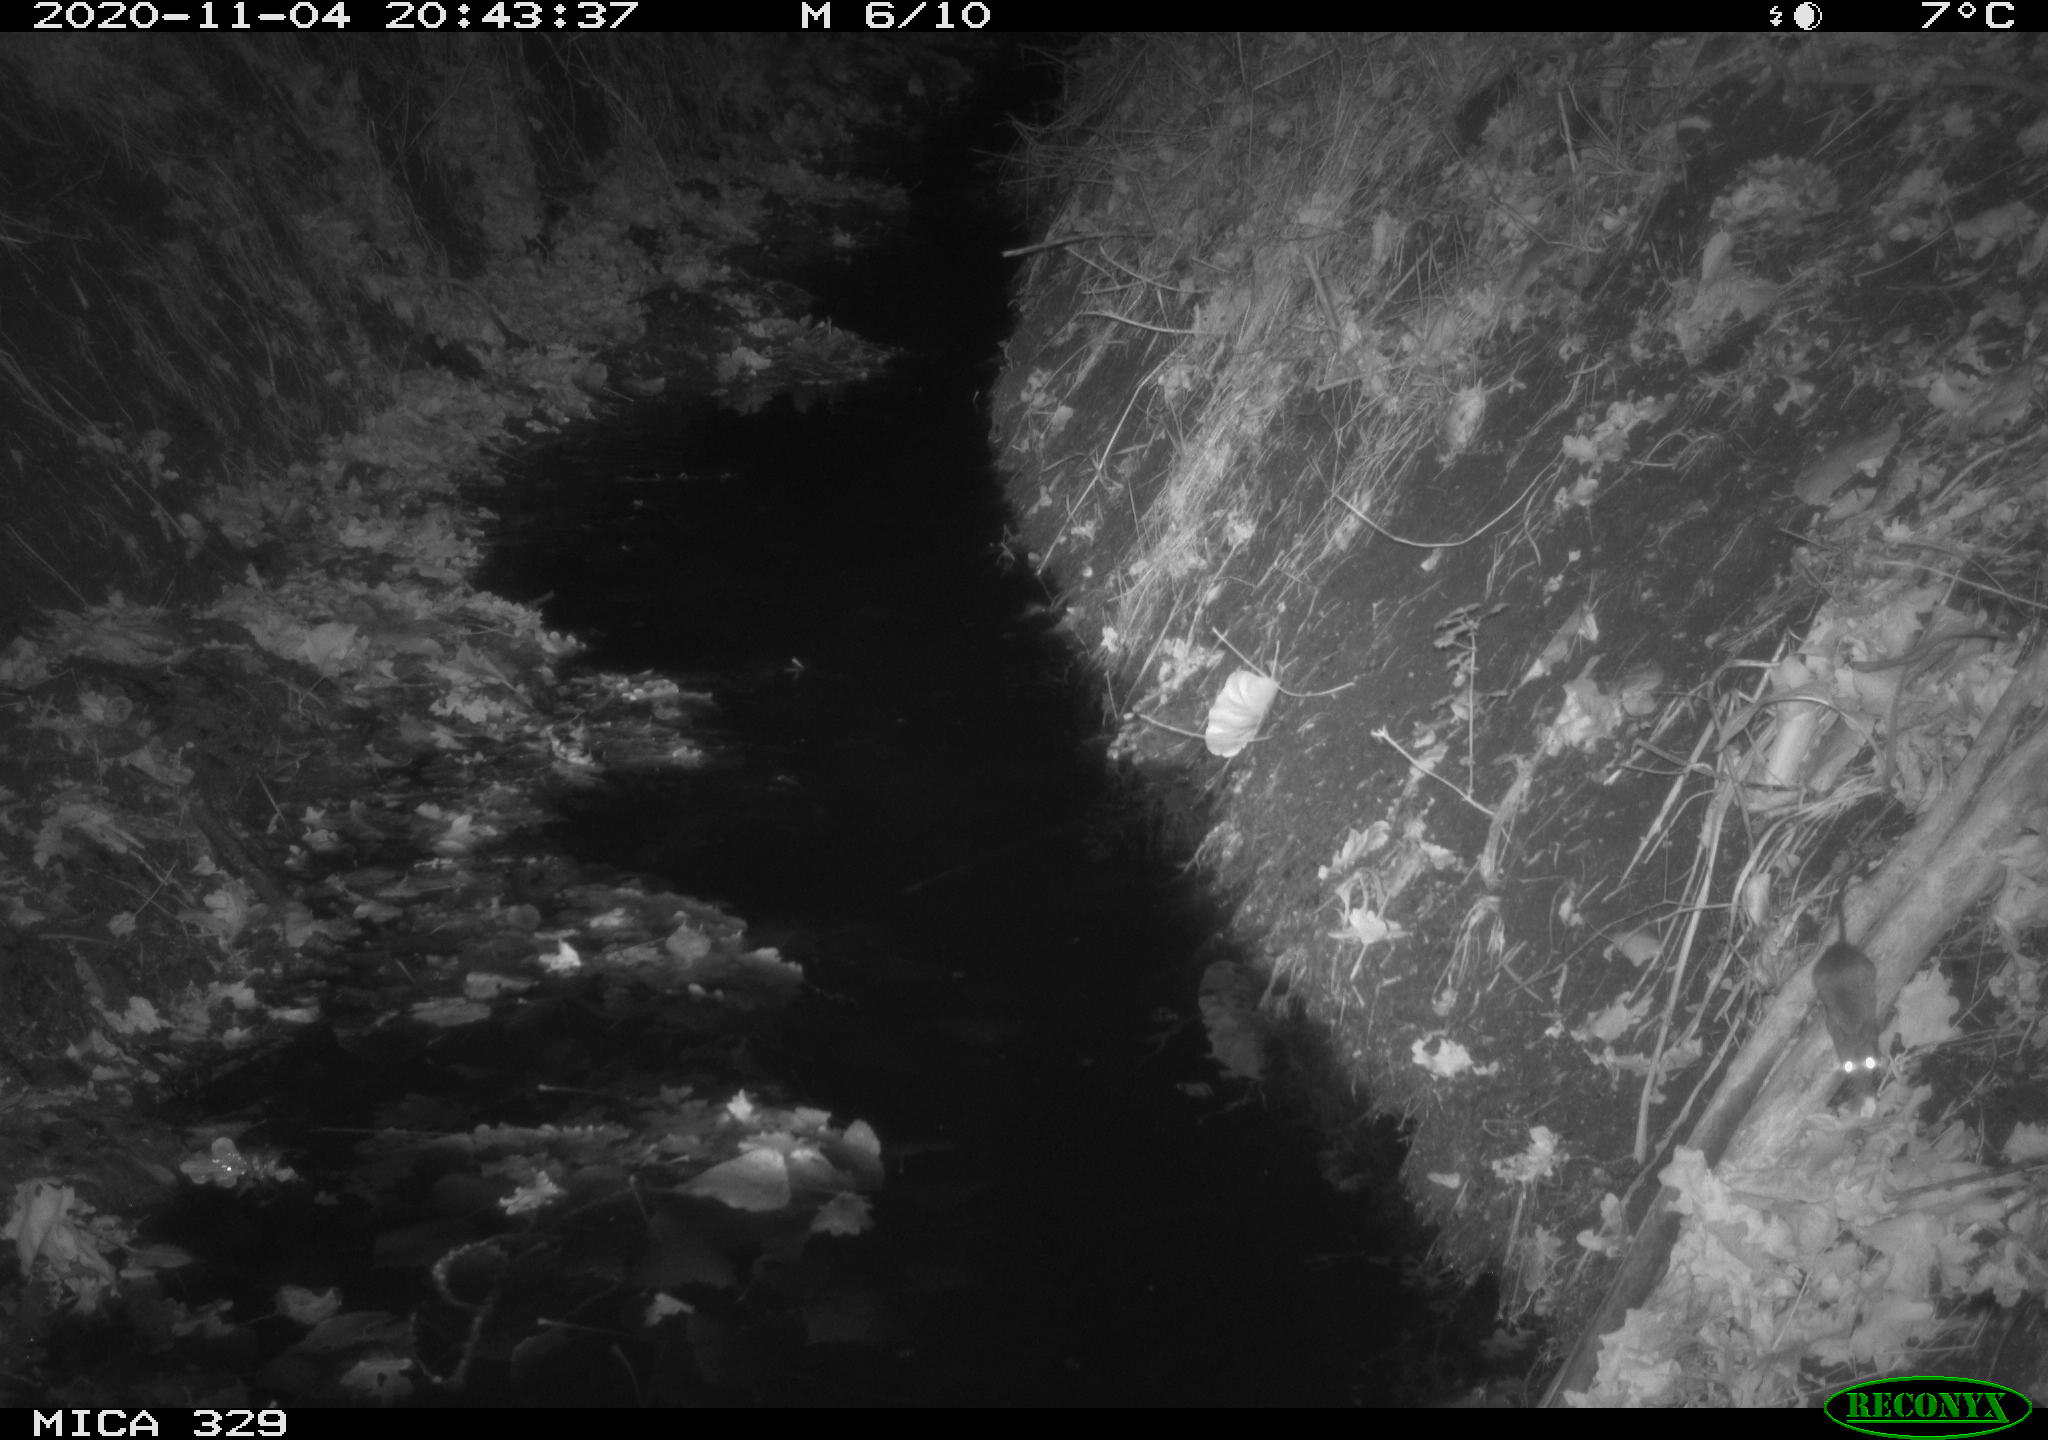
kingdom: Animalia
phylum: Chordata
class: Mammalia
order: Rodentia
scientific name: Rodentia
